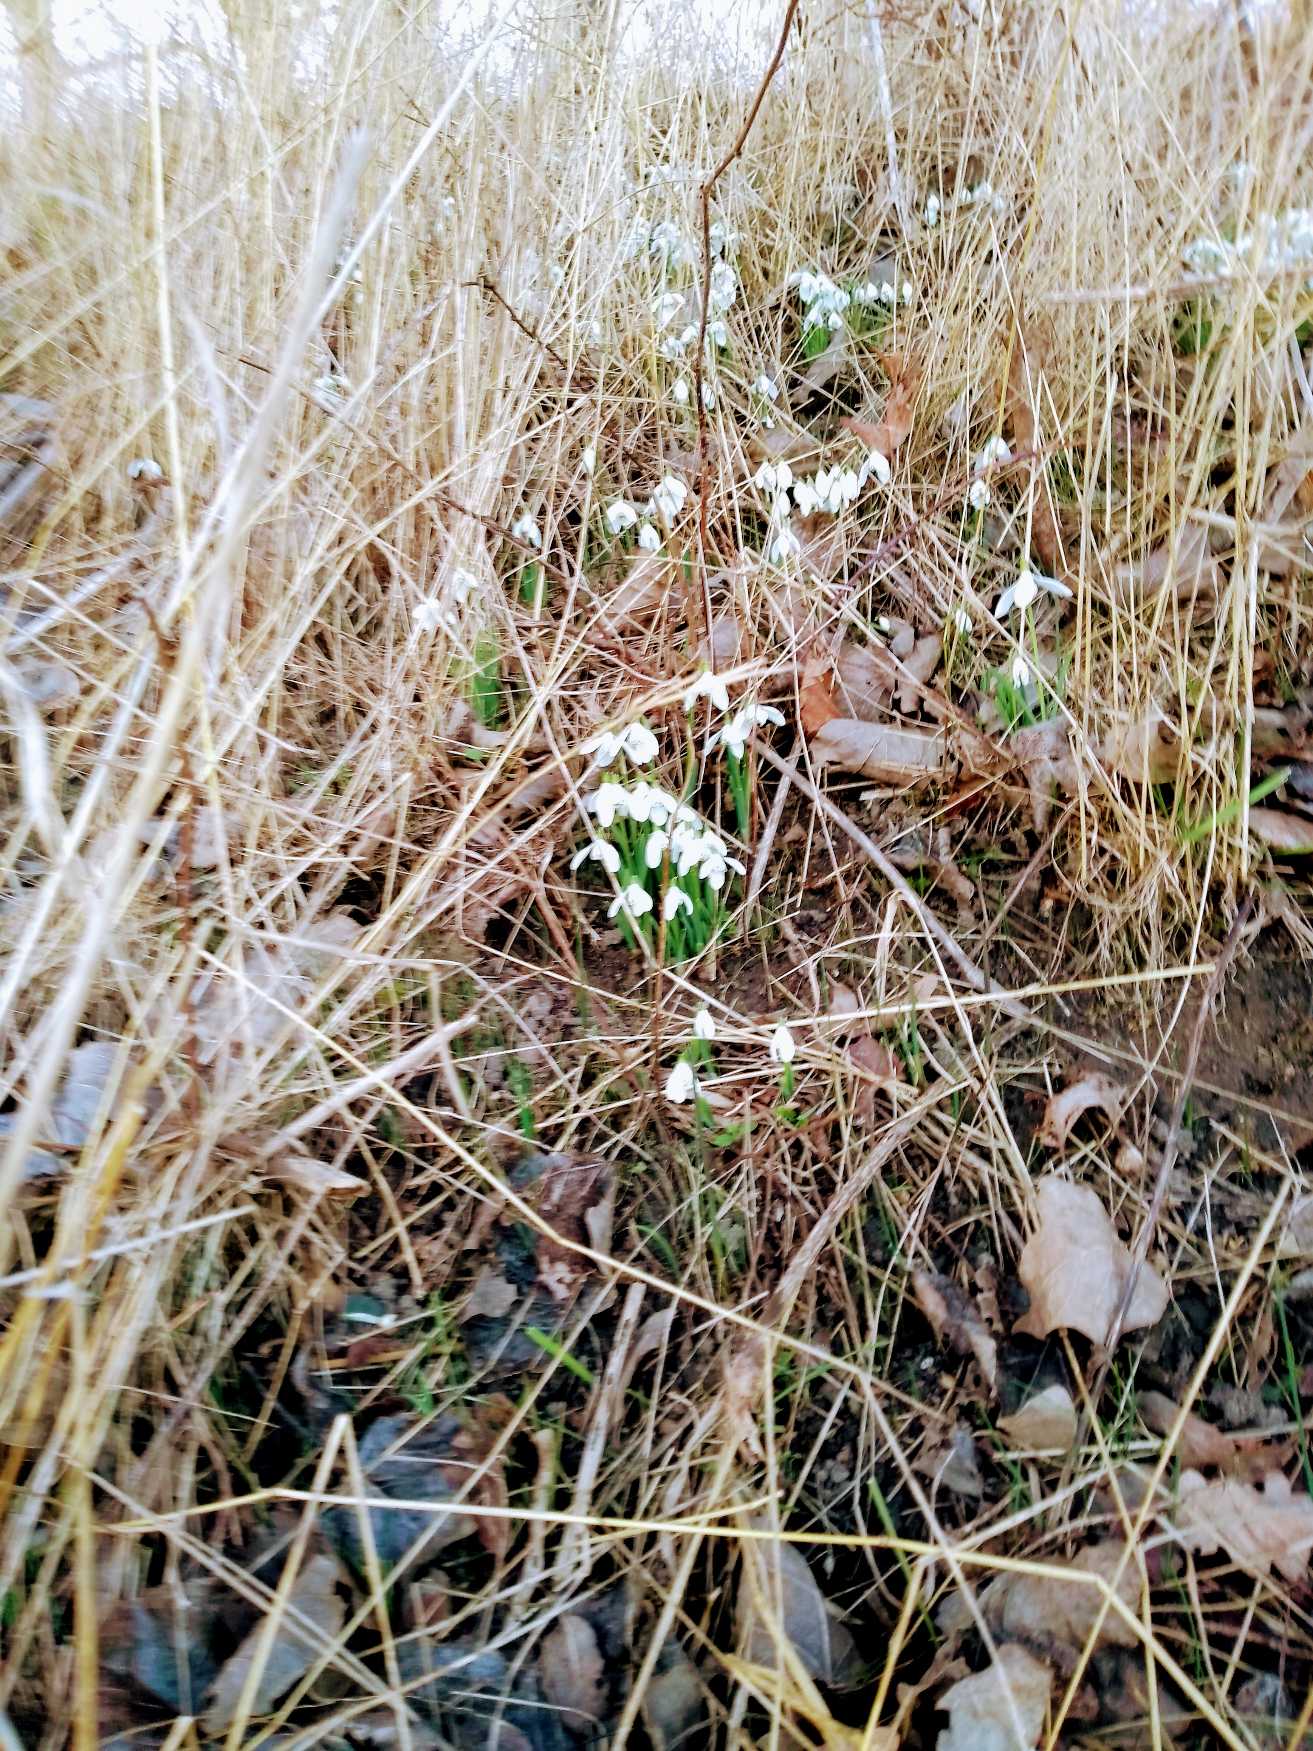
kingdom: Plantae
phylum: Tracheophyta
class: Liliopsida
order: Asparagales
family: Amaryllidaceae
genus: Galanthus
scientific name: Galanthus nivalis
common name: Vintergæk
